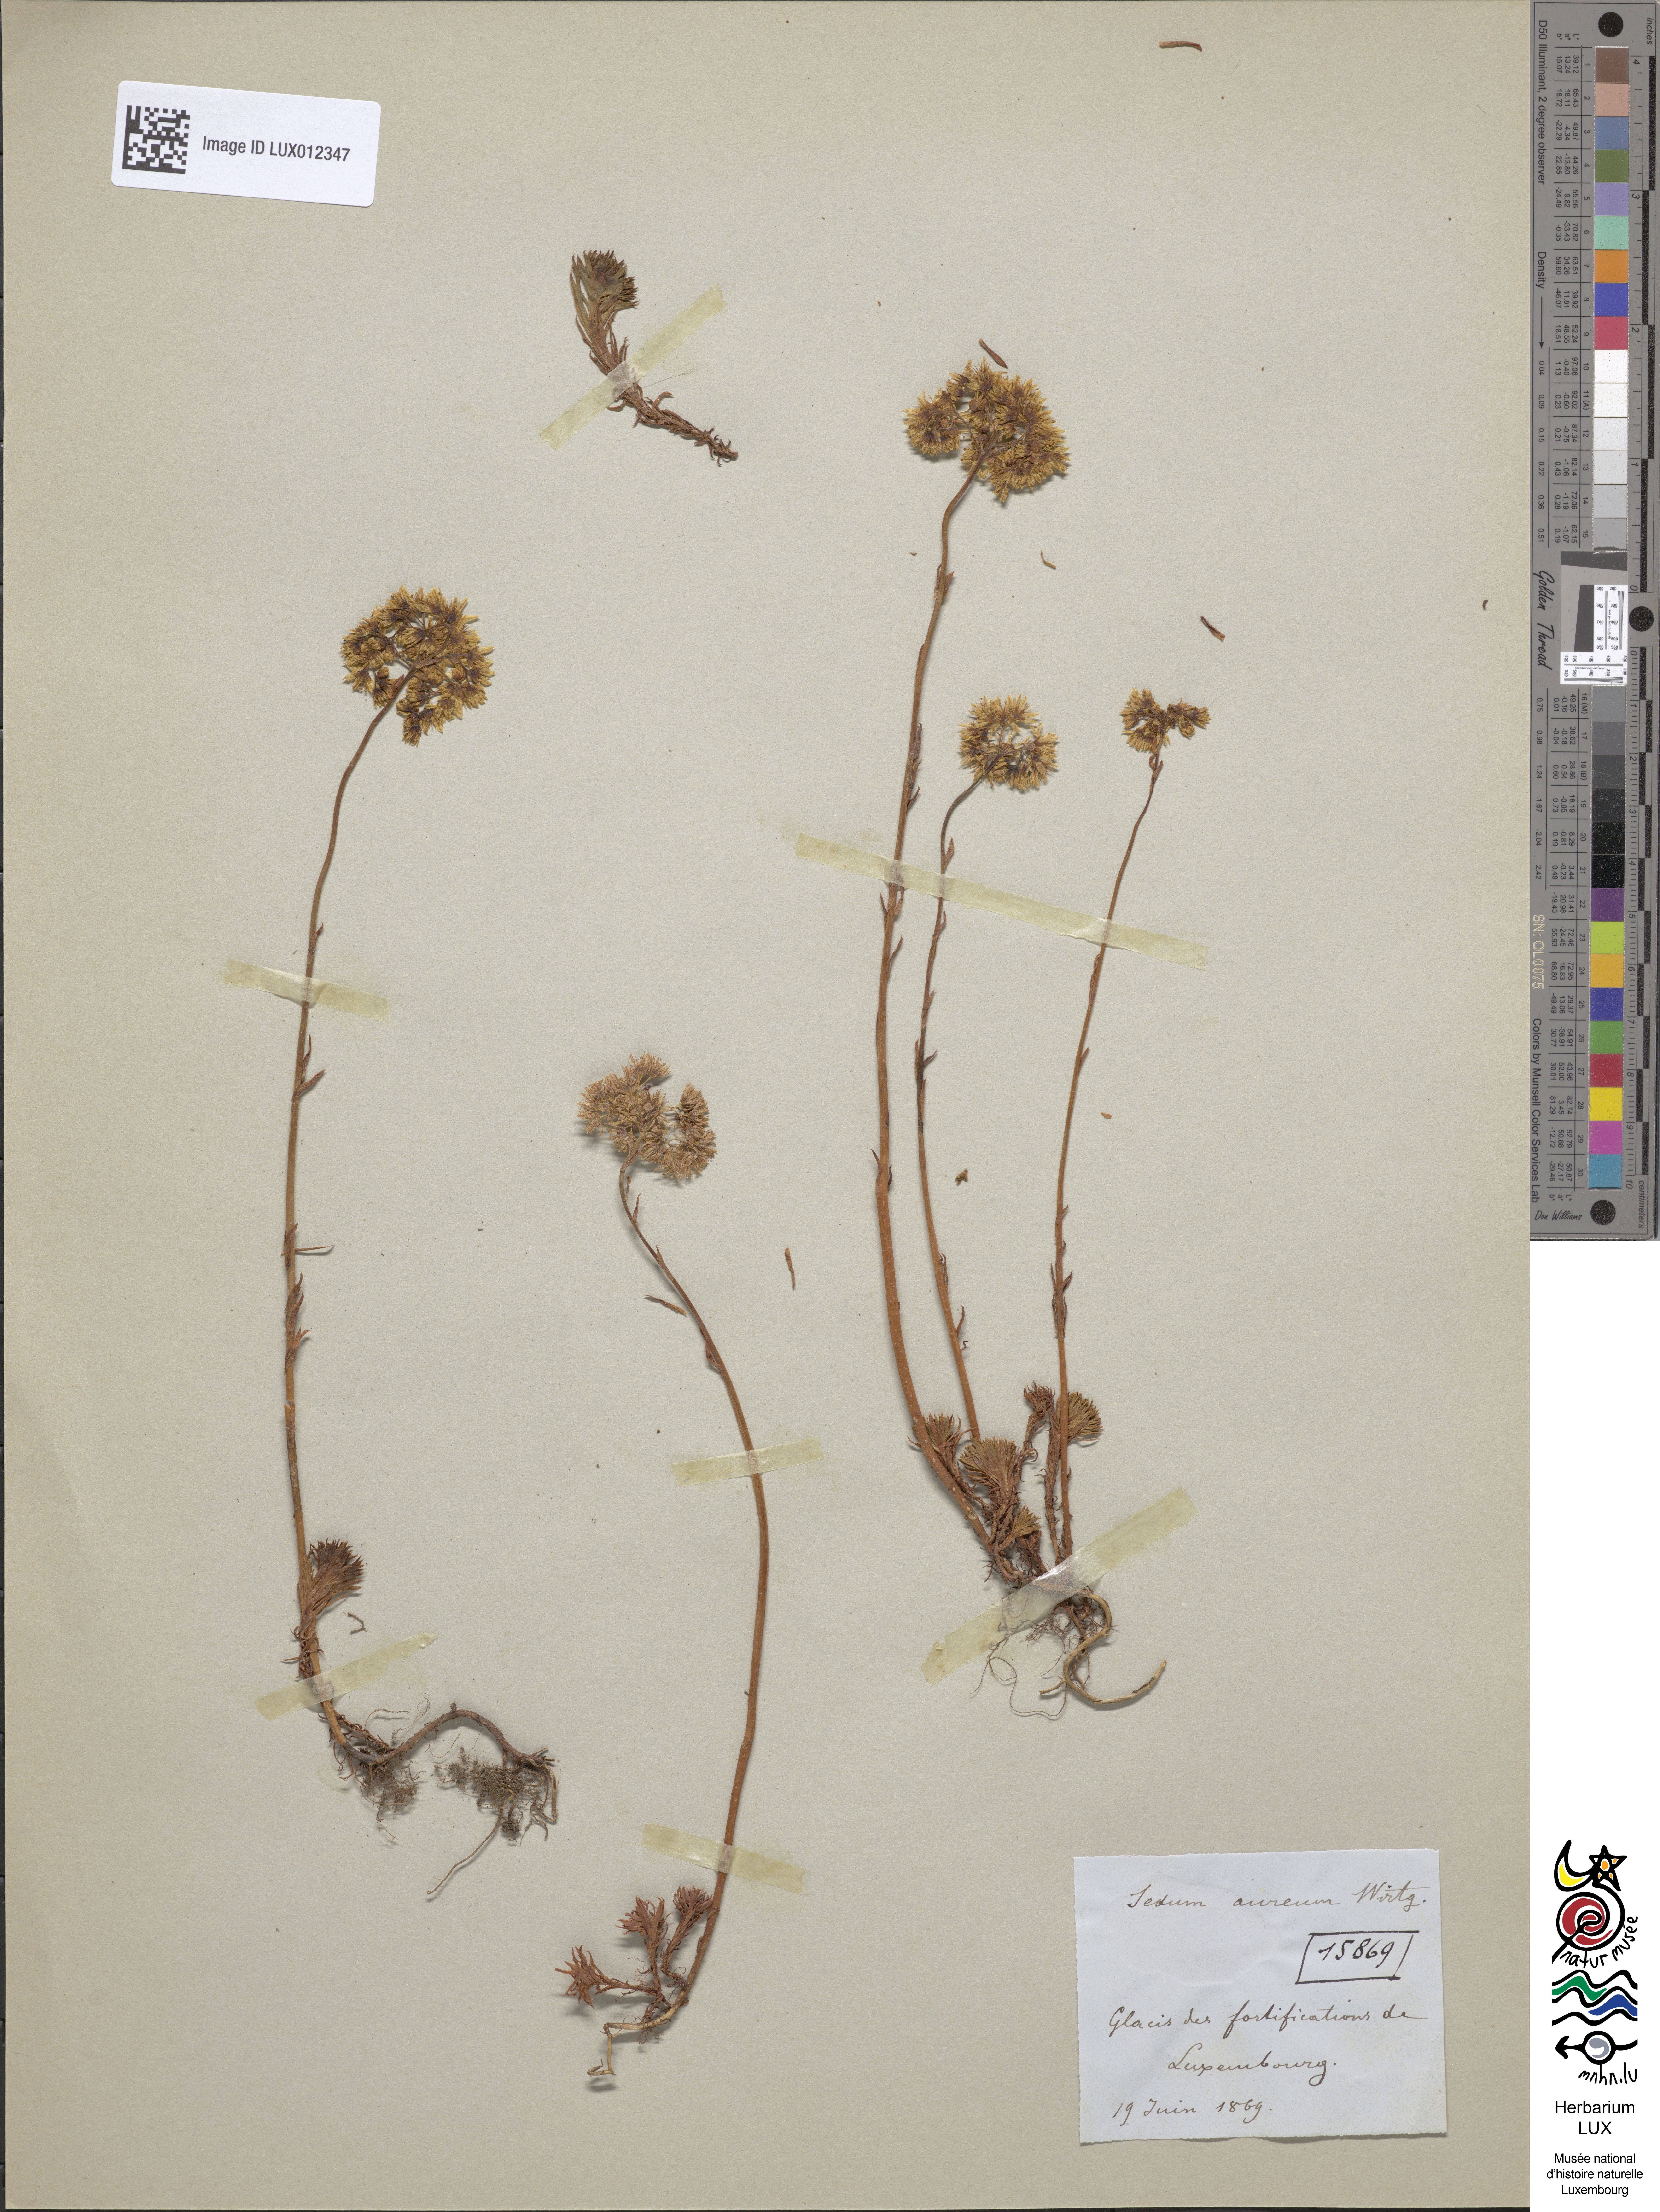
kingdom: Plantae
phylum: Tracheophyta
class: Magnoliopsida
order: Saxifragales
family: Crassulaceae
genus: Petrosedum
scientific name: Petrosedum forsterianum
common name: Forster's stonecrop
